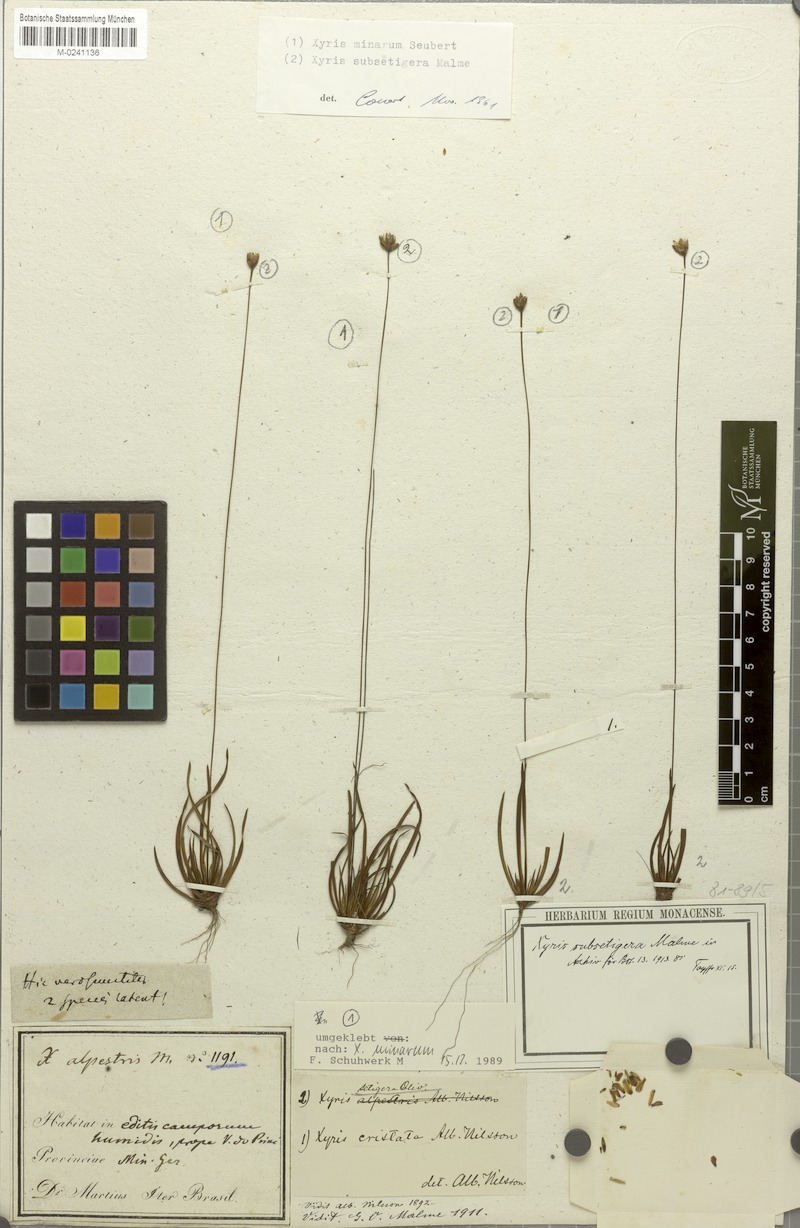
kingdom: Plantae
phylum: Tracheophyta
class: Liliopsida
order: Poales
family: Xyridaceae
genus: Xyris
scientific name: Xyris subsetigera
